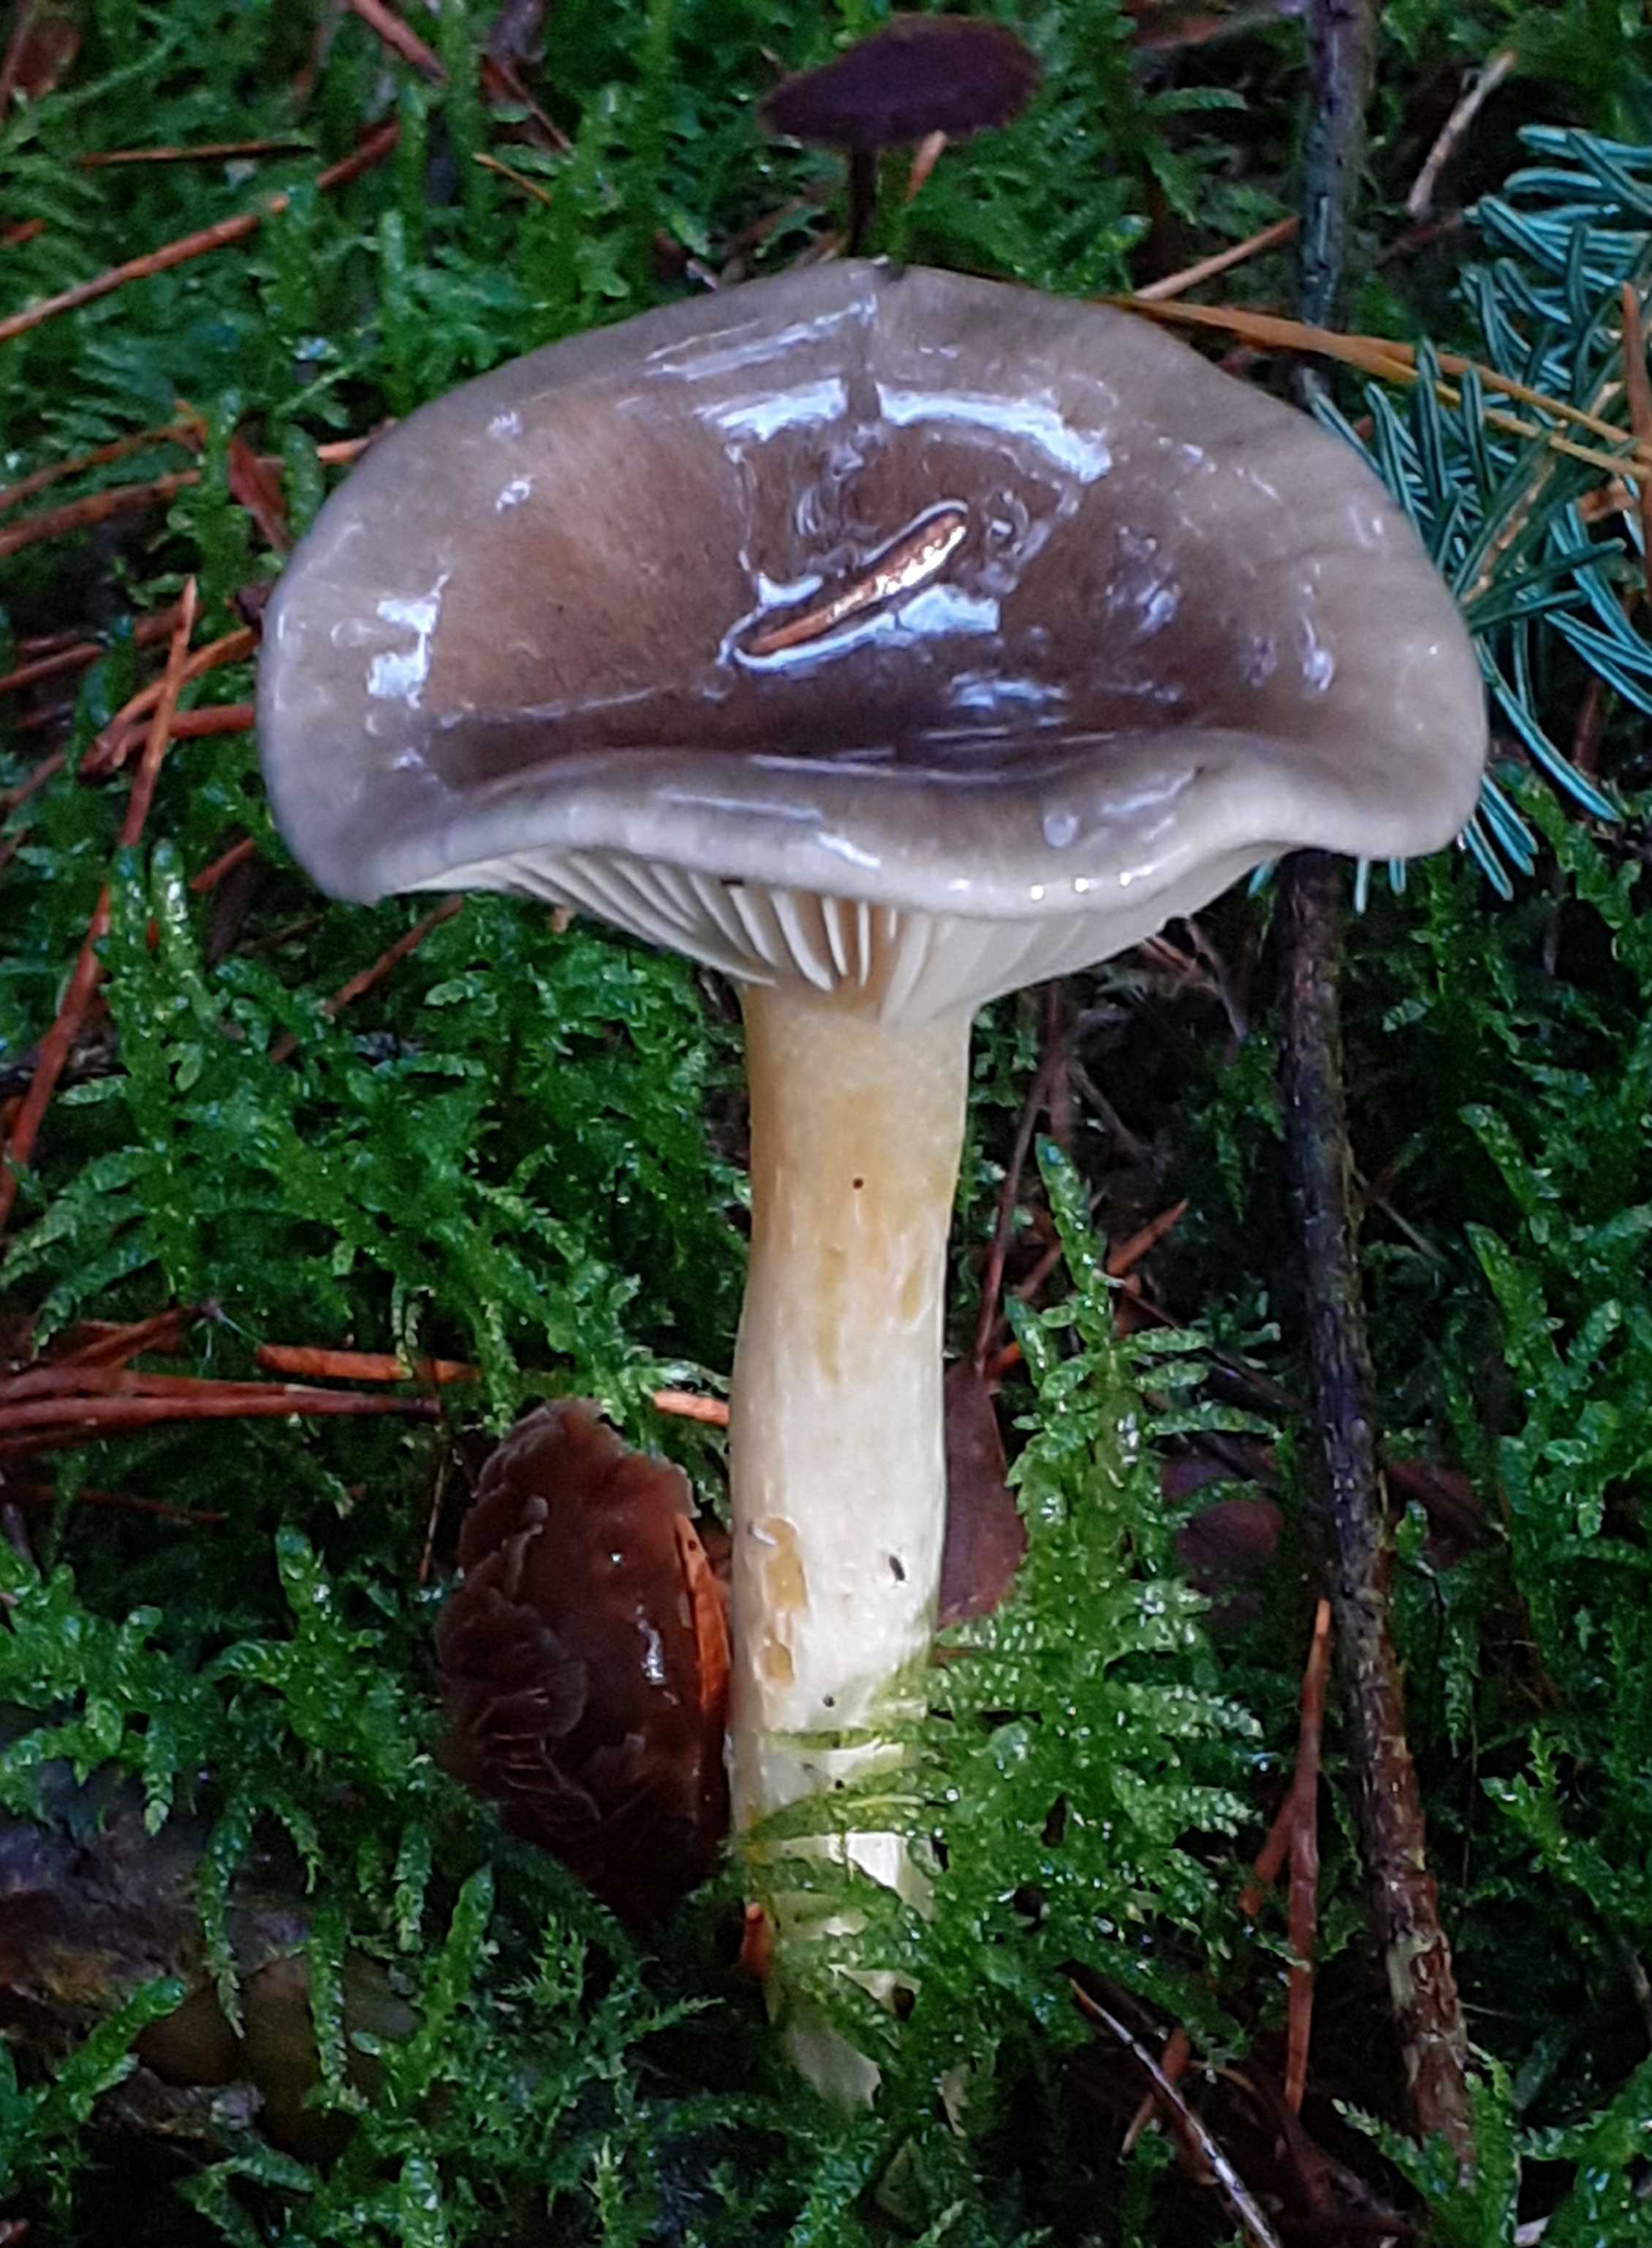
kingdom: Fungi
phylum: Basidiomycota
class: Agaricomycetes
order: Agaricales
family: Hygrophoraceae
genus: Hygrophorus
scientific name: Hygrophorus hypothejus
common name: frost-sneglehat
